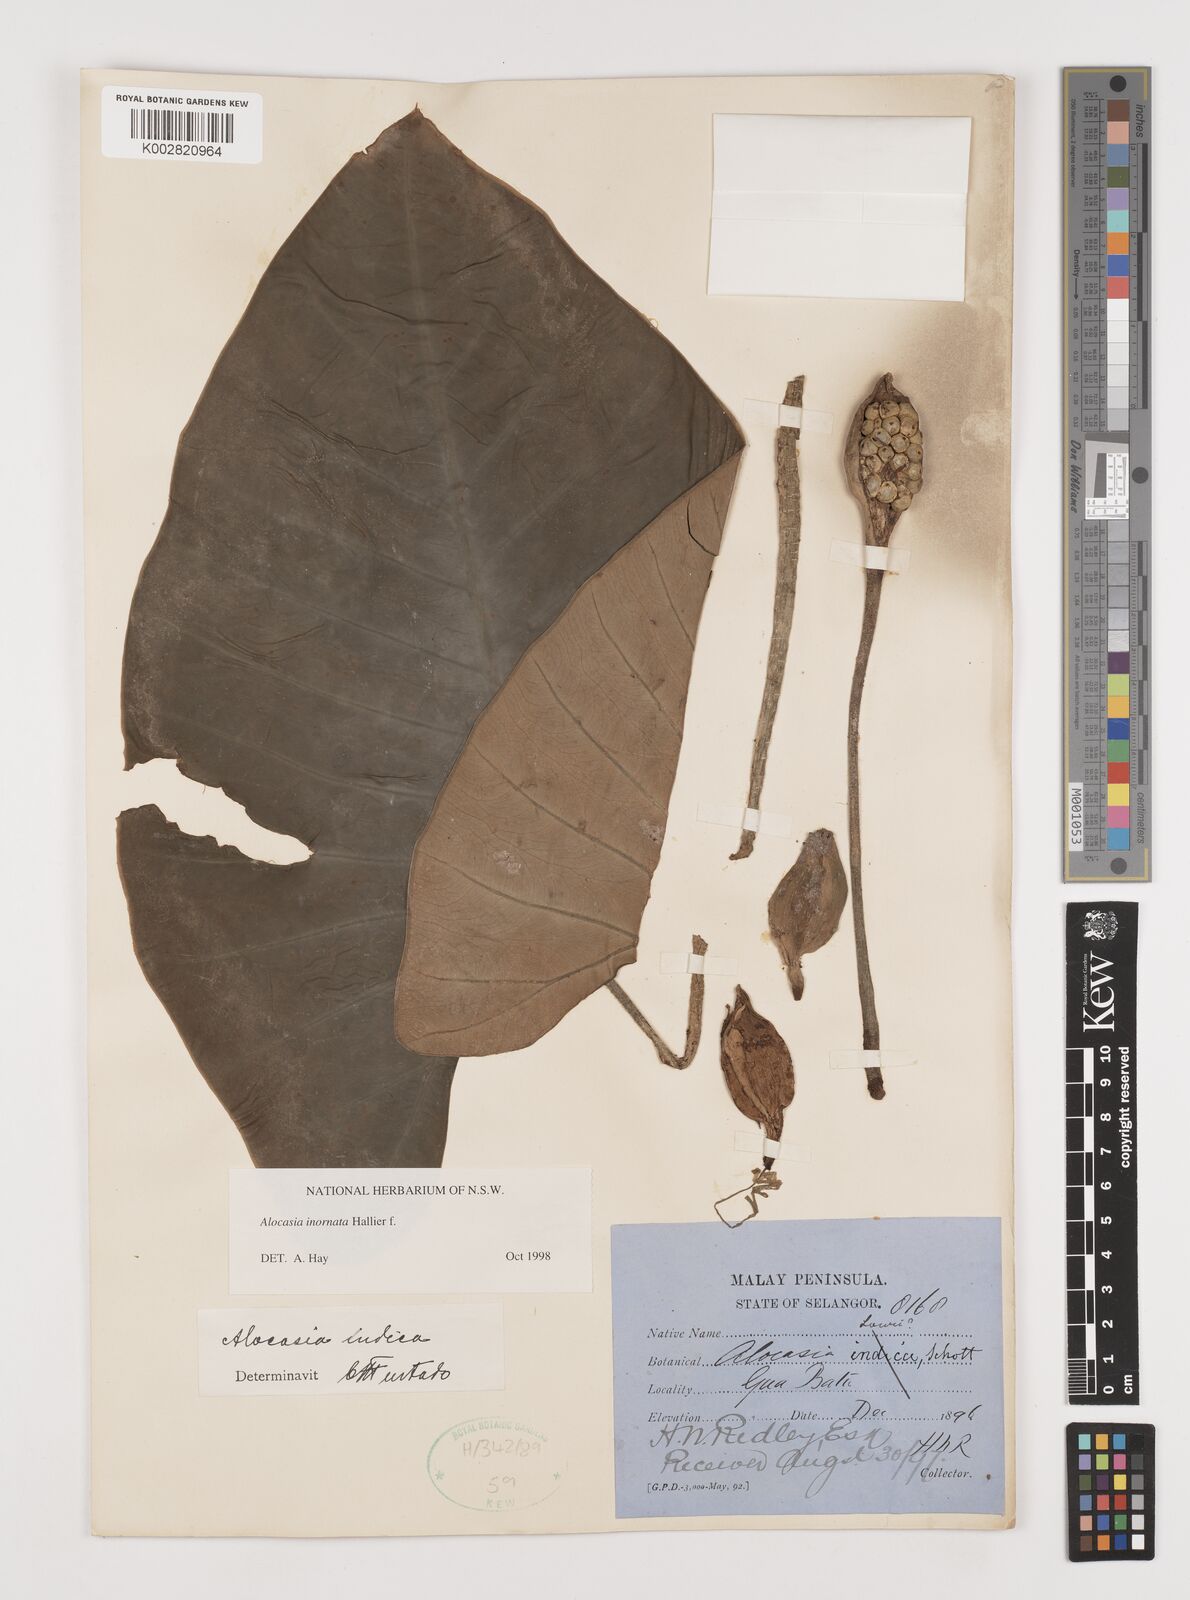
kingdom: Plantae
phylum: Tracheophyta
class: Liliopsida
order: Alismatales
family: Araceae
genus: Alocasia
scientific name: Alocasia inornata
